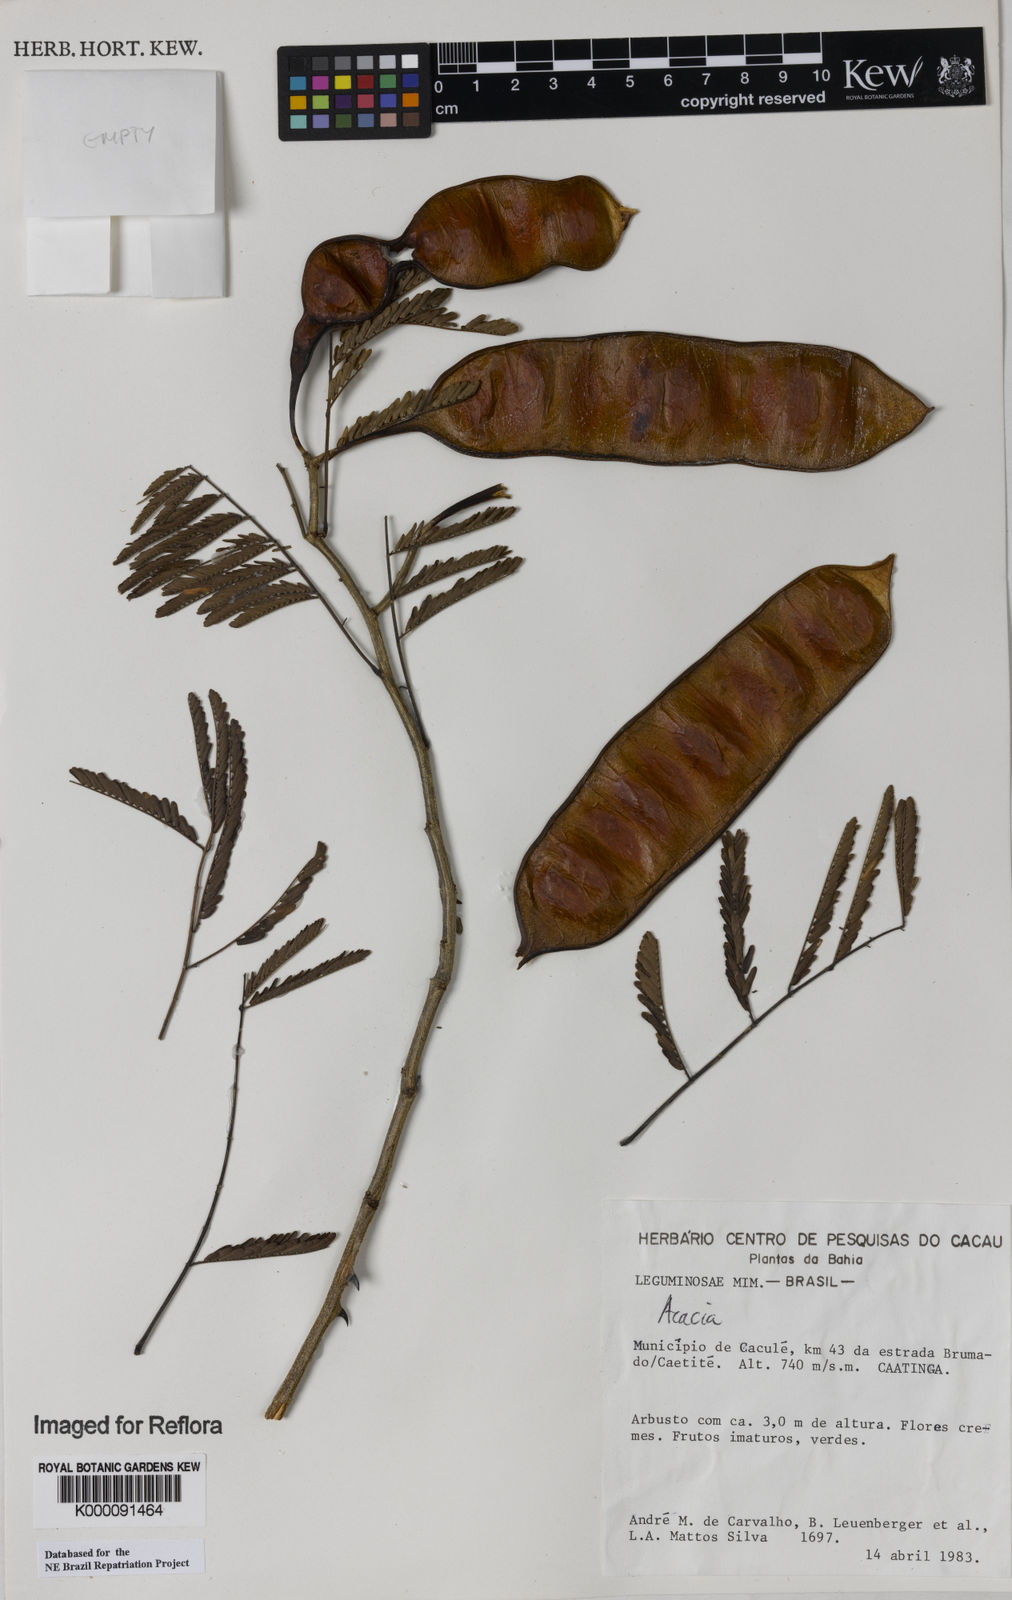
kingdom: Plantae
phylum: Tracheophyta
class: Magnoliopsida
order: Fabales
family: Fabaceae
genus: Acacia
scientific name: Acacia
